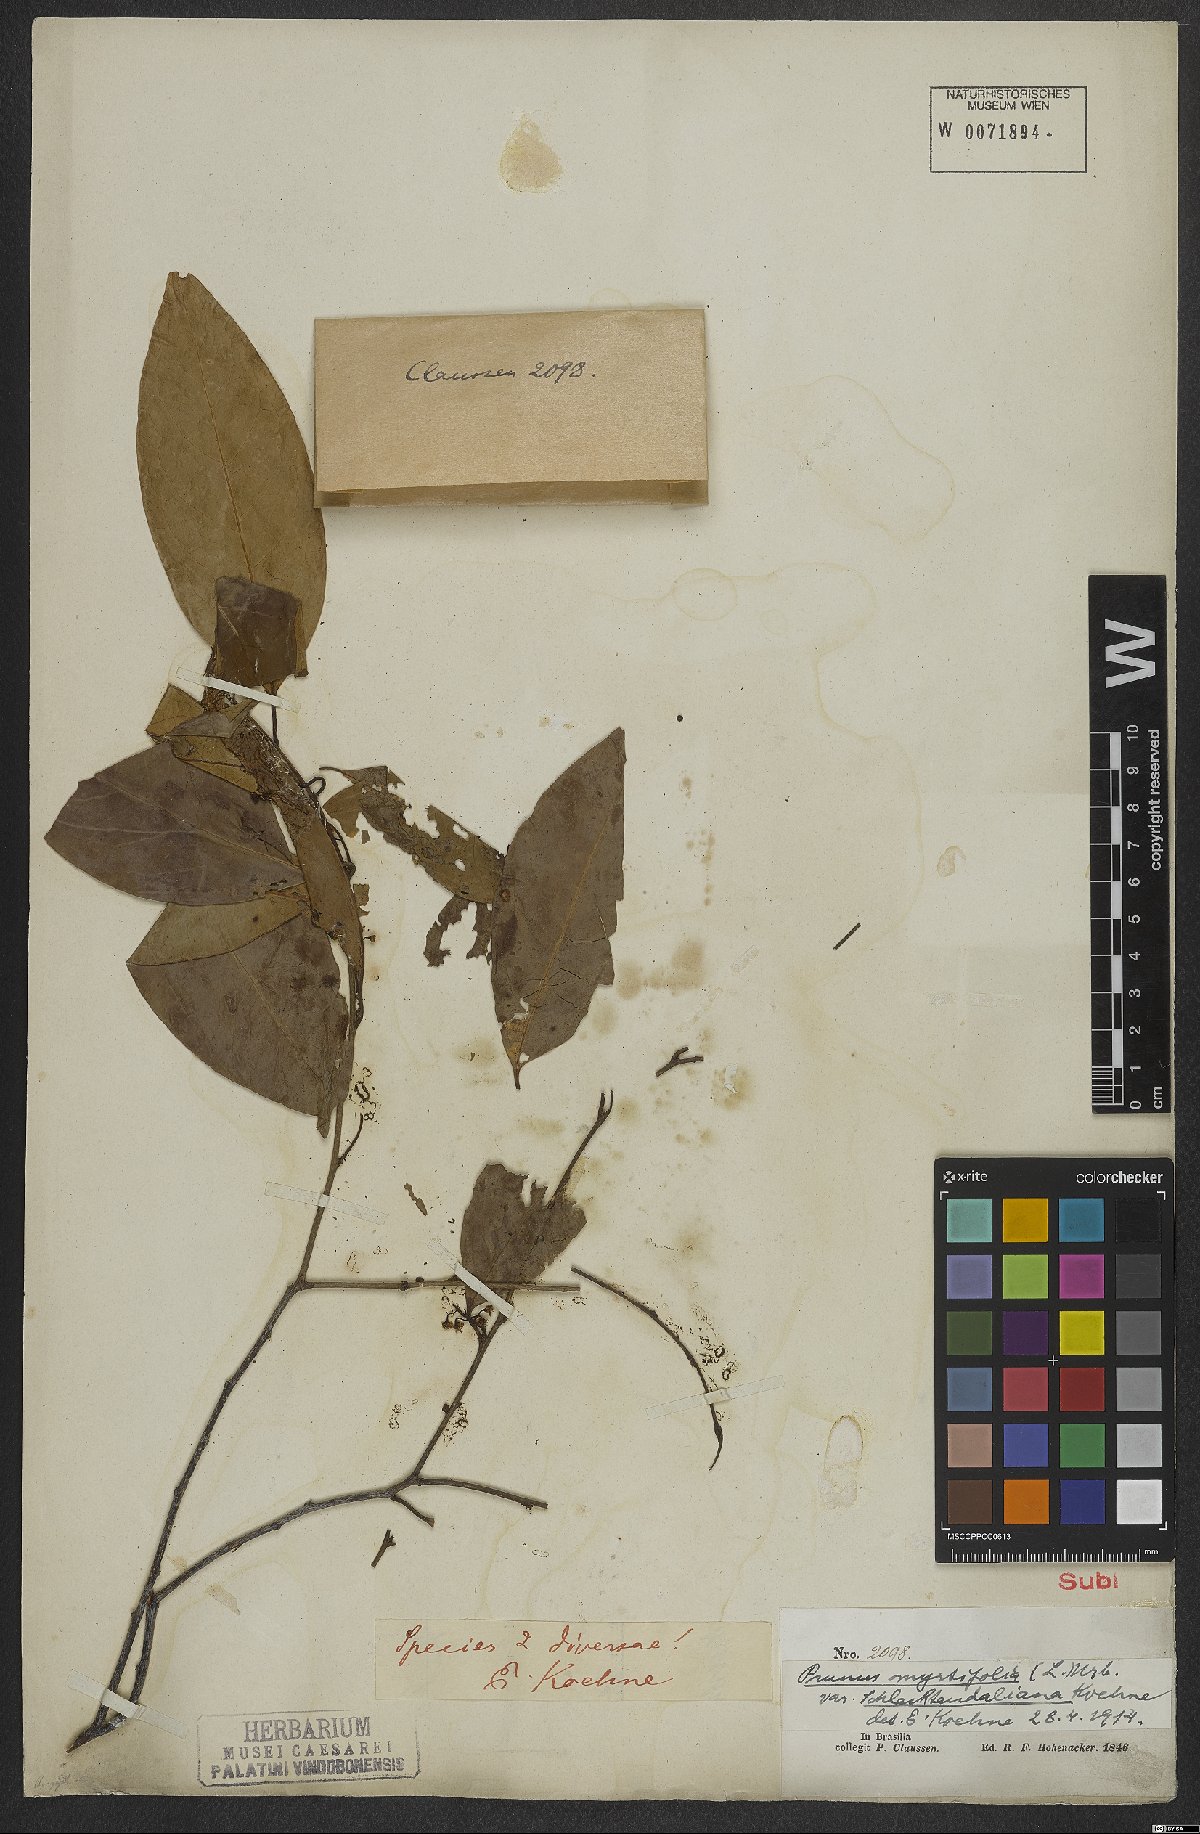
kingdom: Plantae
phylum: Tracheophyta
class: Magnoliopsida
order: Rosales
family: Rosaceae
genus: Prunus
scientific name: Prunus myrtifolia
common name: West indies cherry
